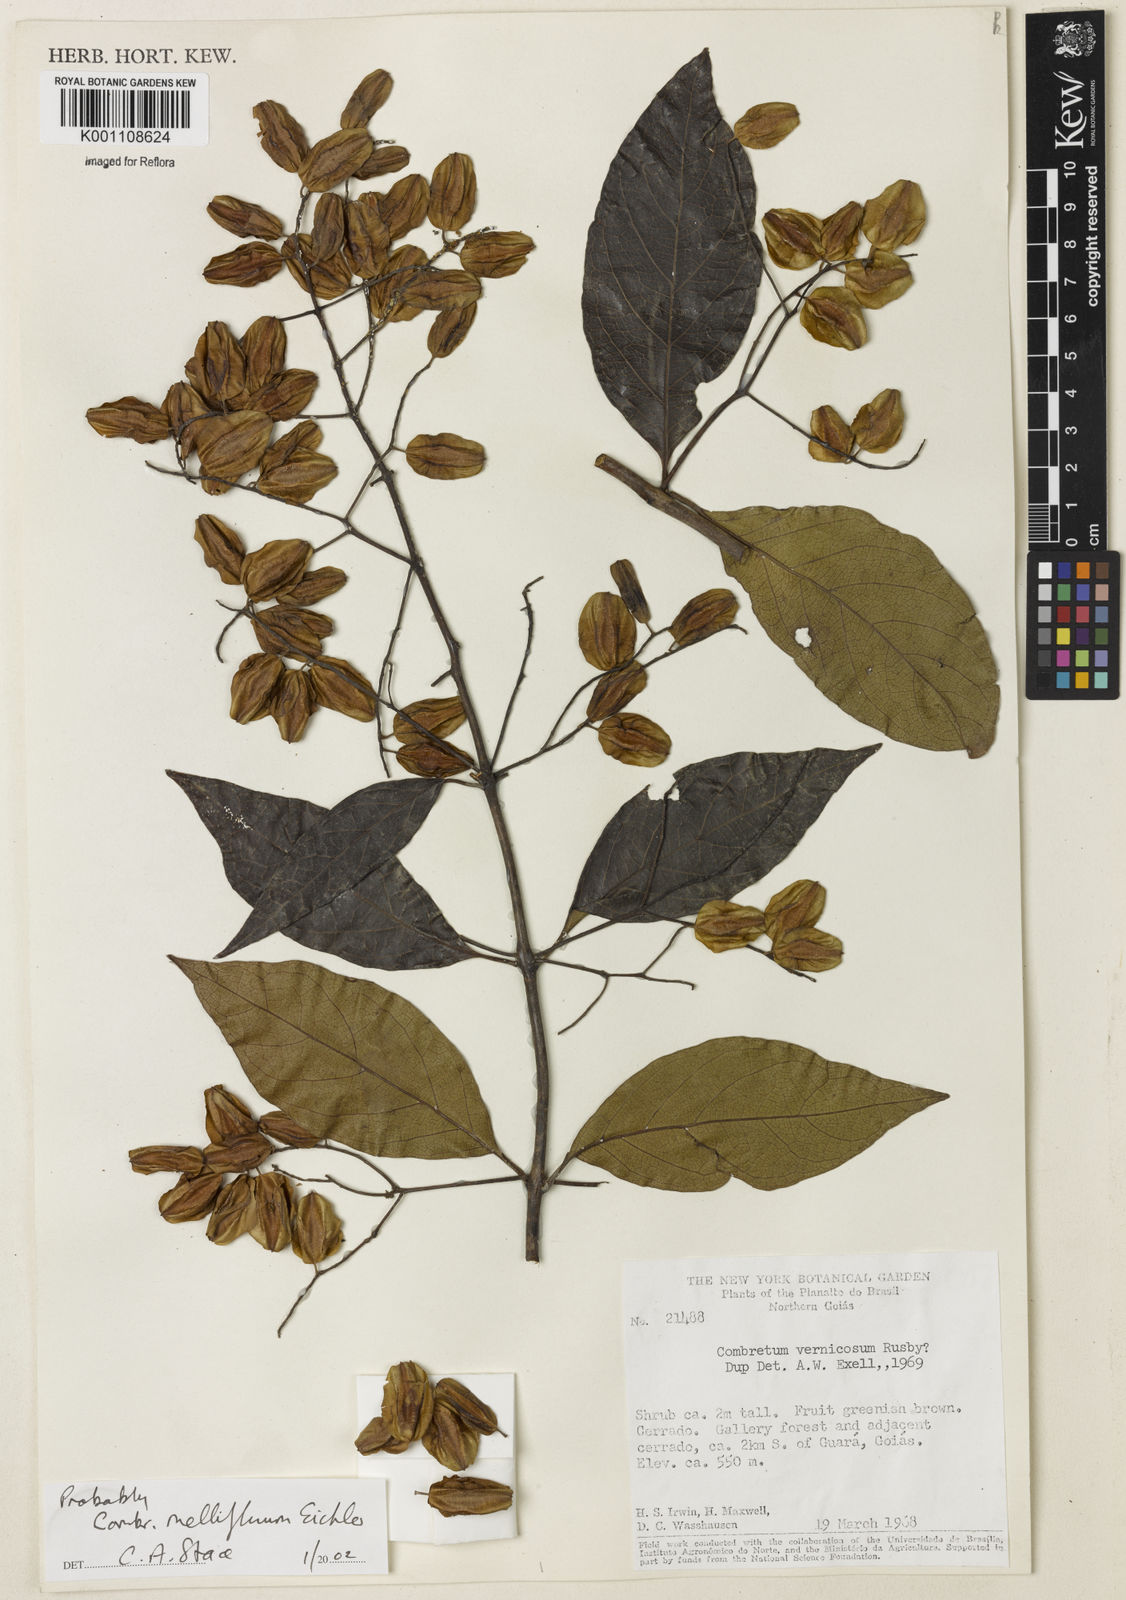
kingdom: Plantae
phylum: Tracheophyta
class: Magnoliopsida
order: Myrtales
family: Combretaceae
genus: Combretum
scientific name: Combretum mellifluum
